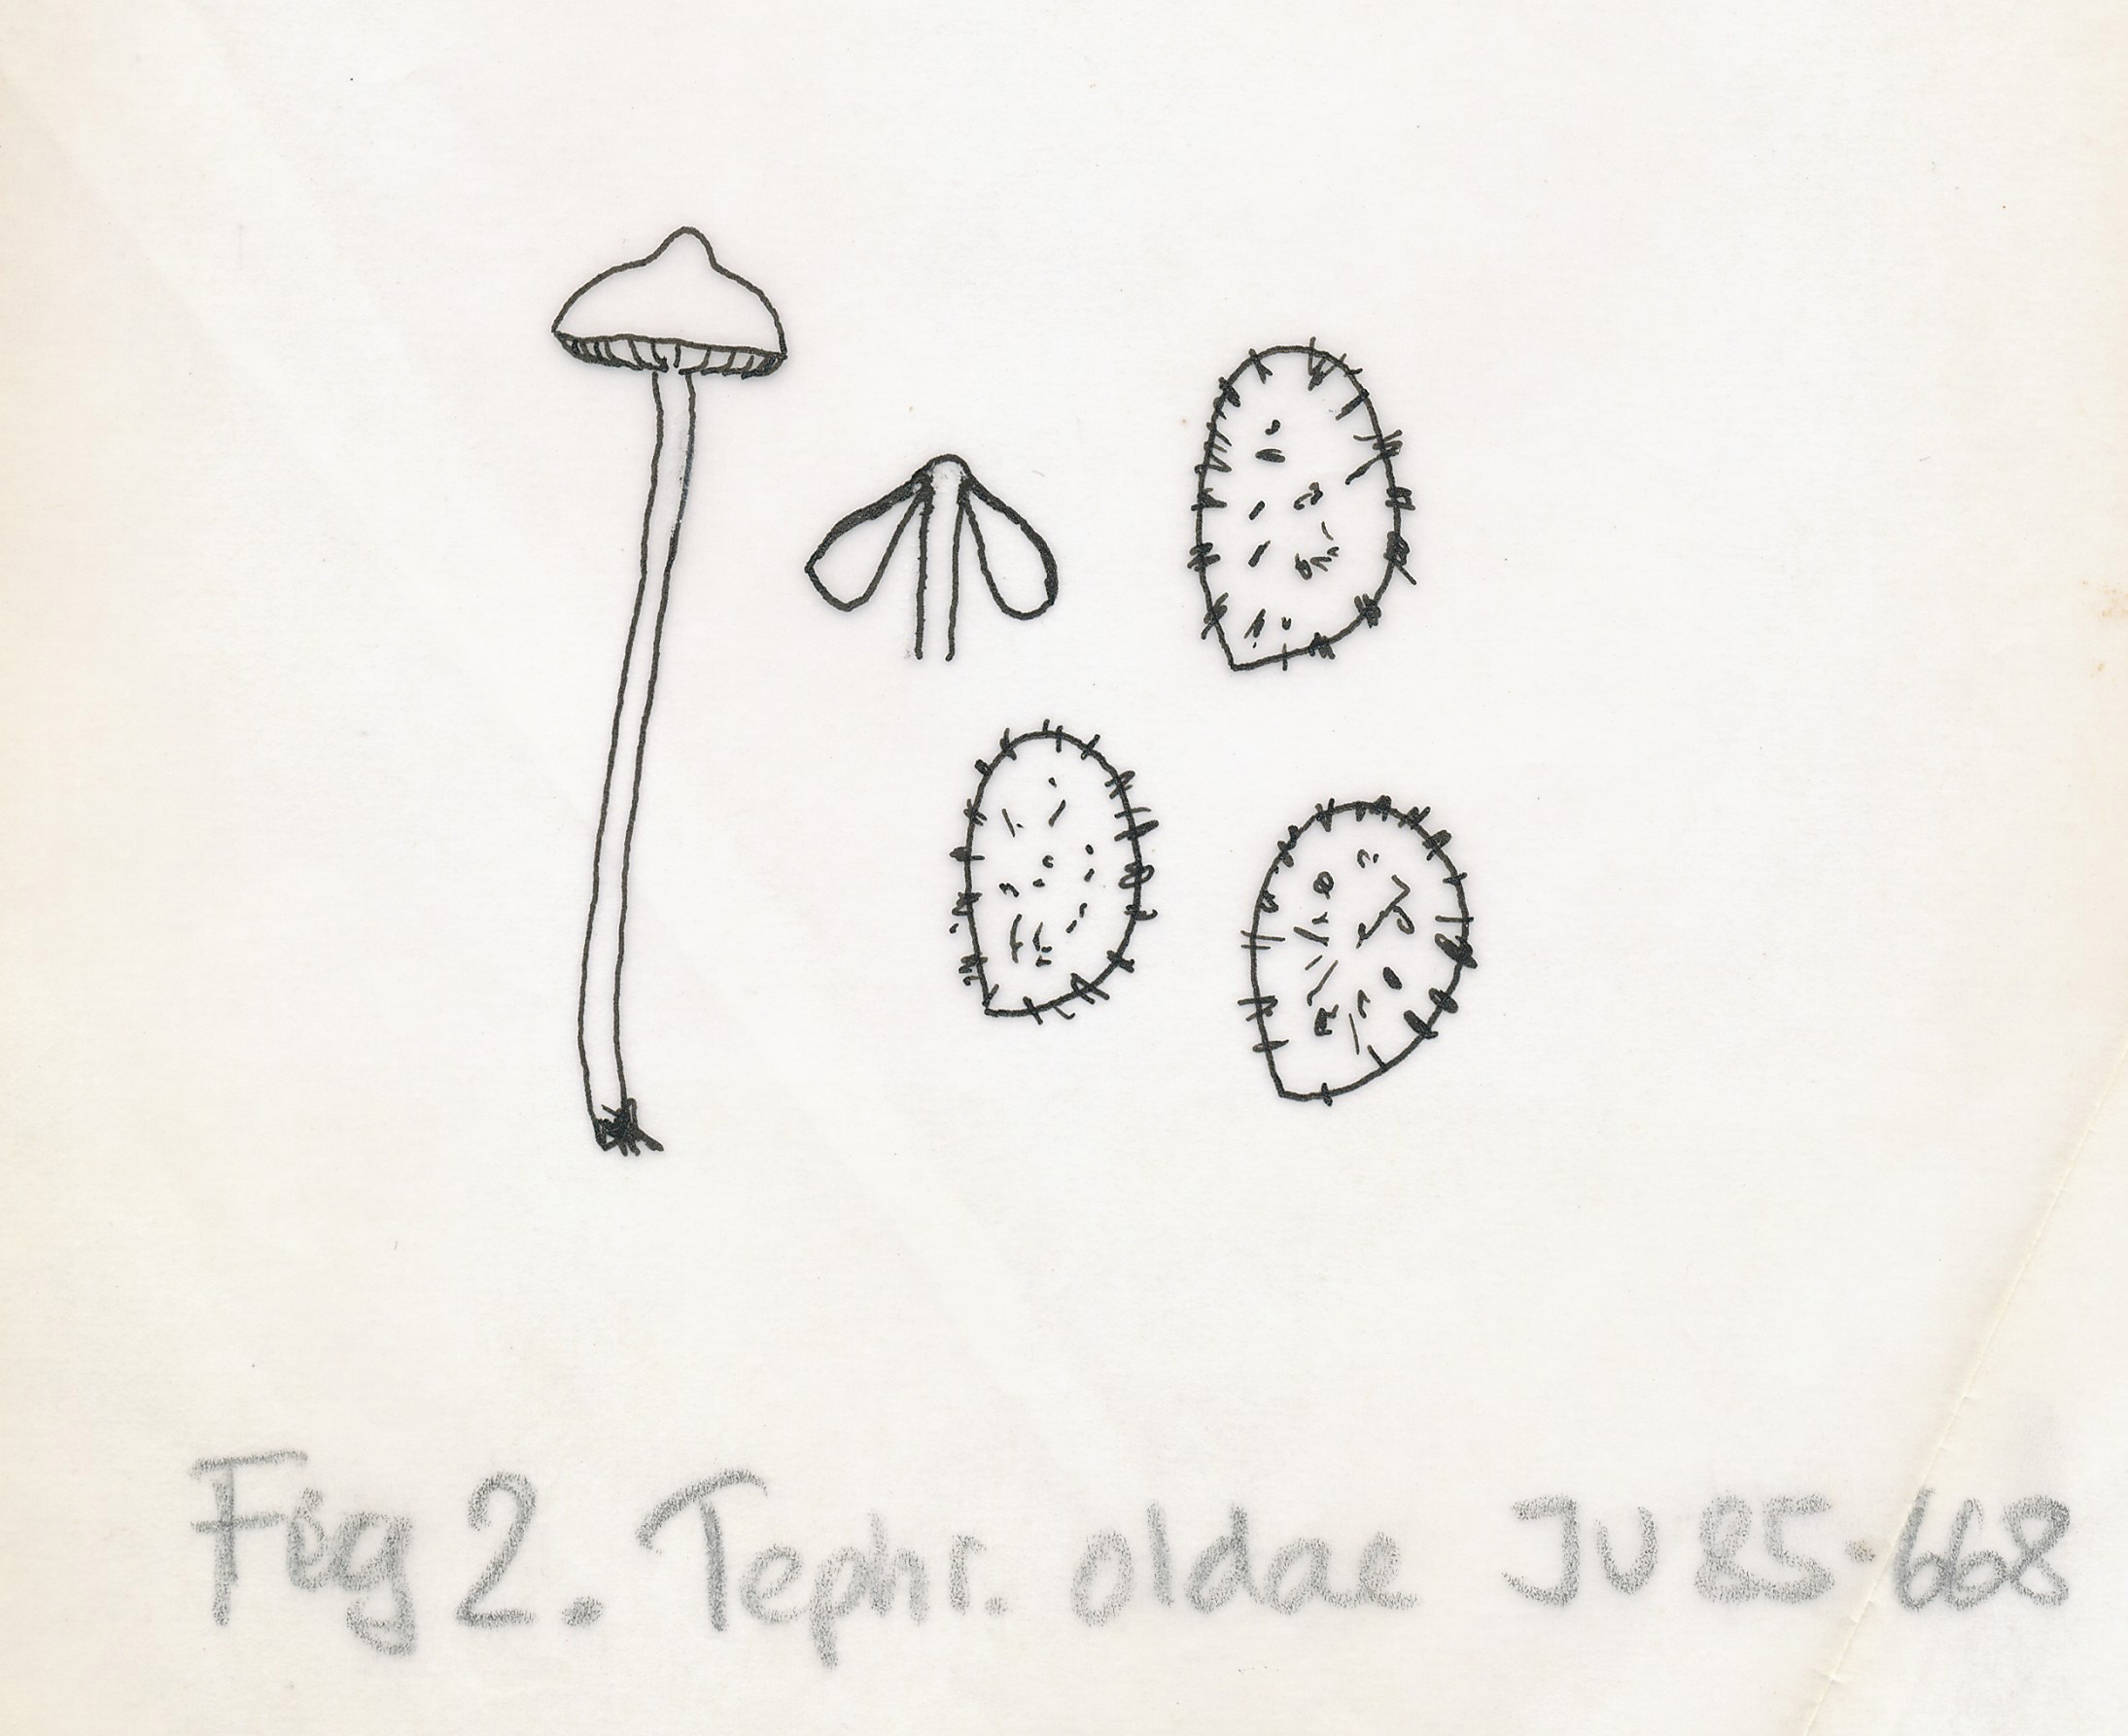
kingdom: Fungi
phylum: Basidiomycota
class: Agaricomycetes
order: Agaricales
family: Lyophyllaceae
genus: Sagaranella
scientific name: Sagaranella tylicolor
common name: kvælstof-gråblad
